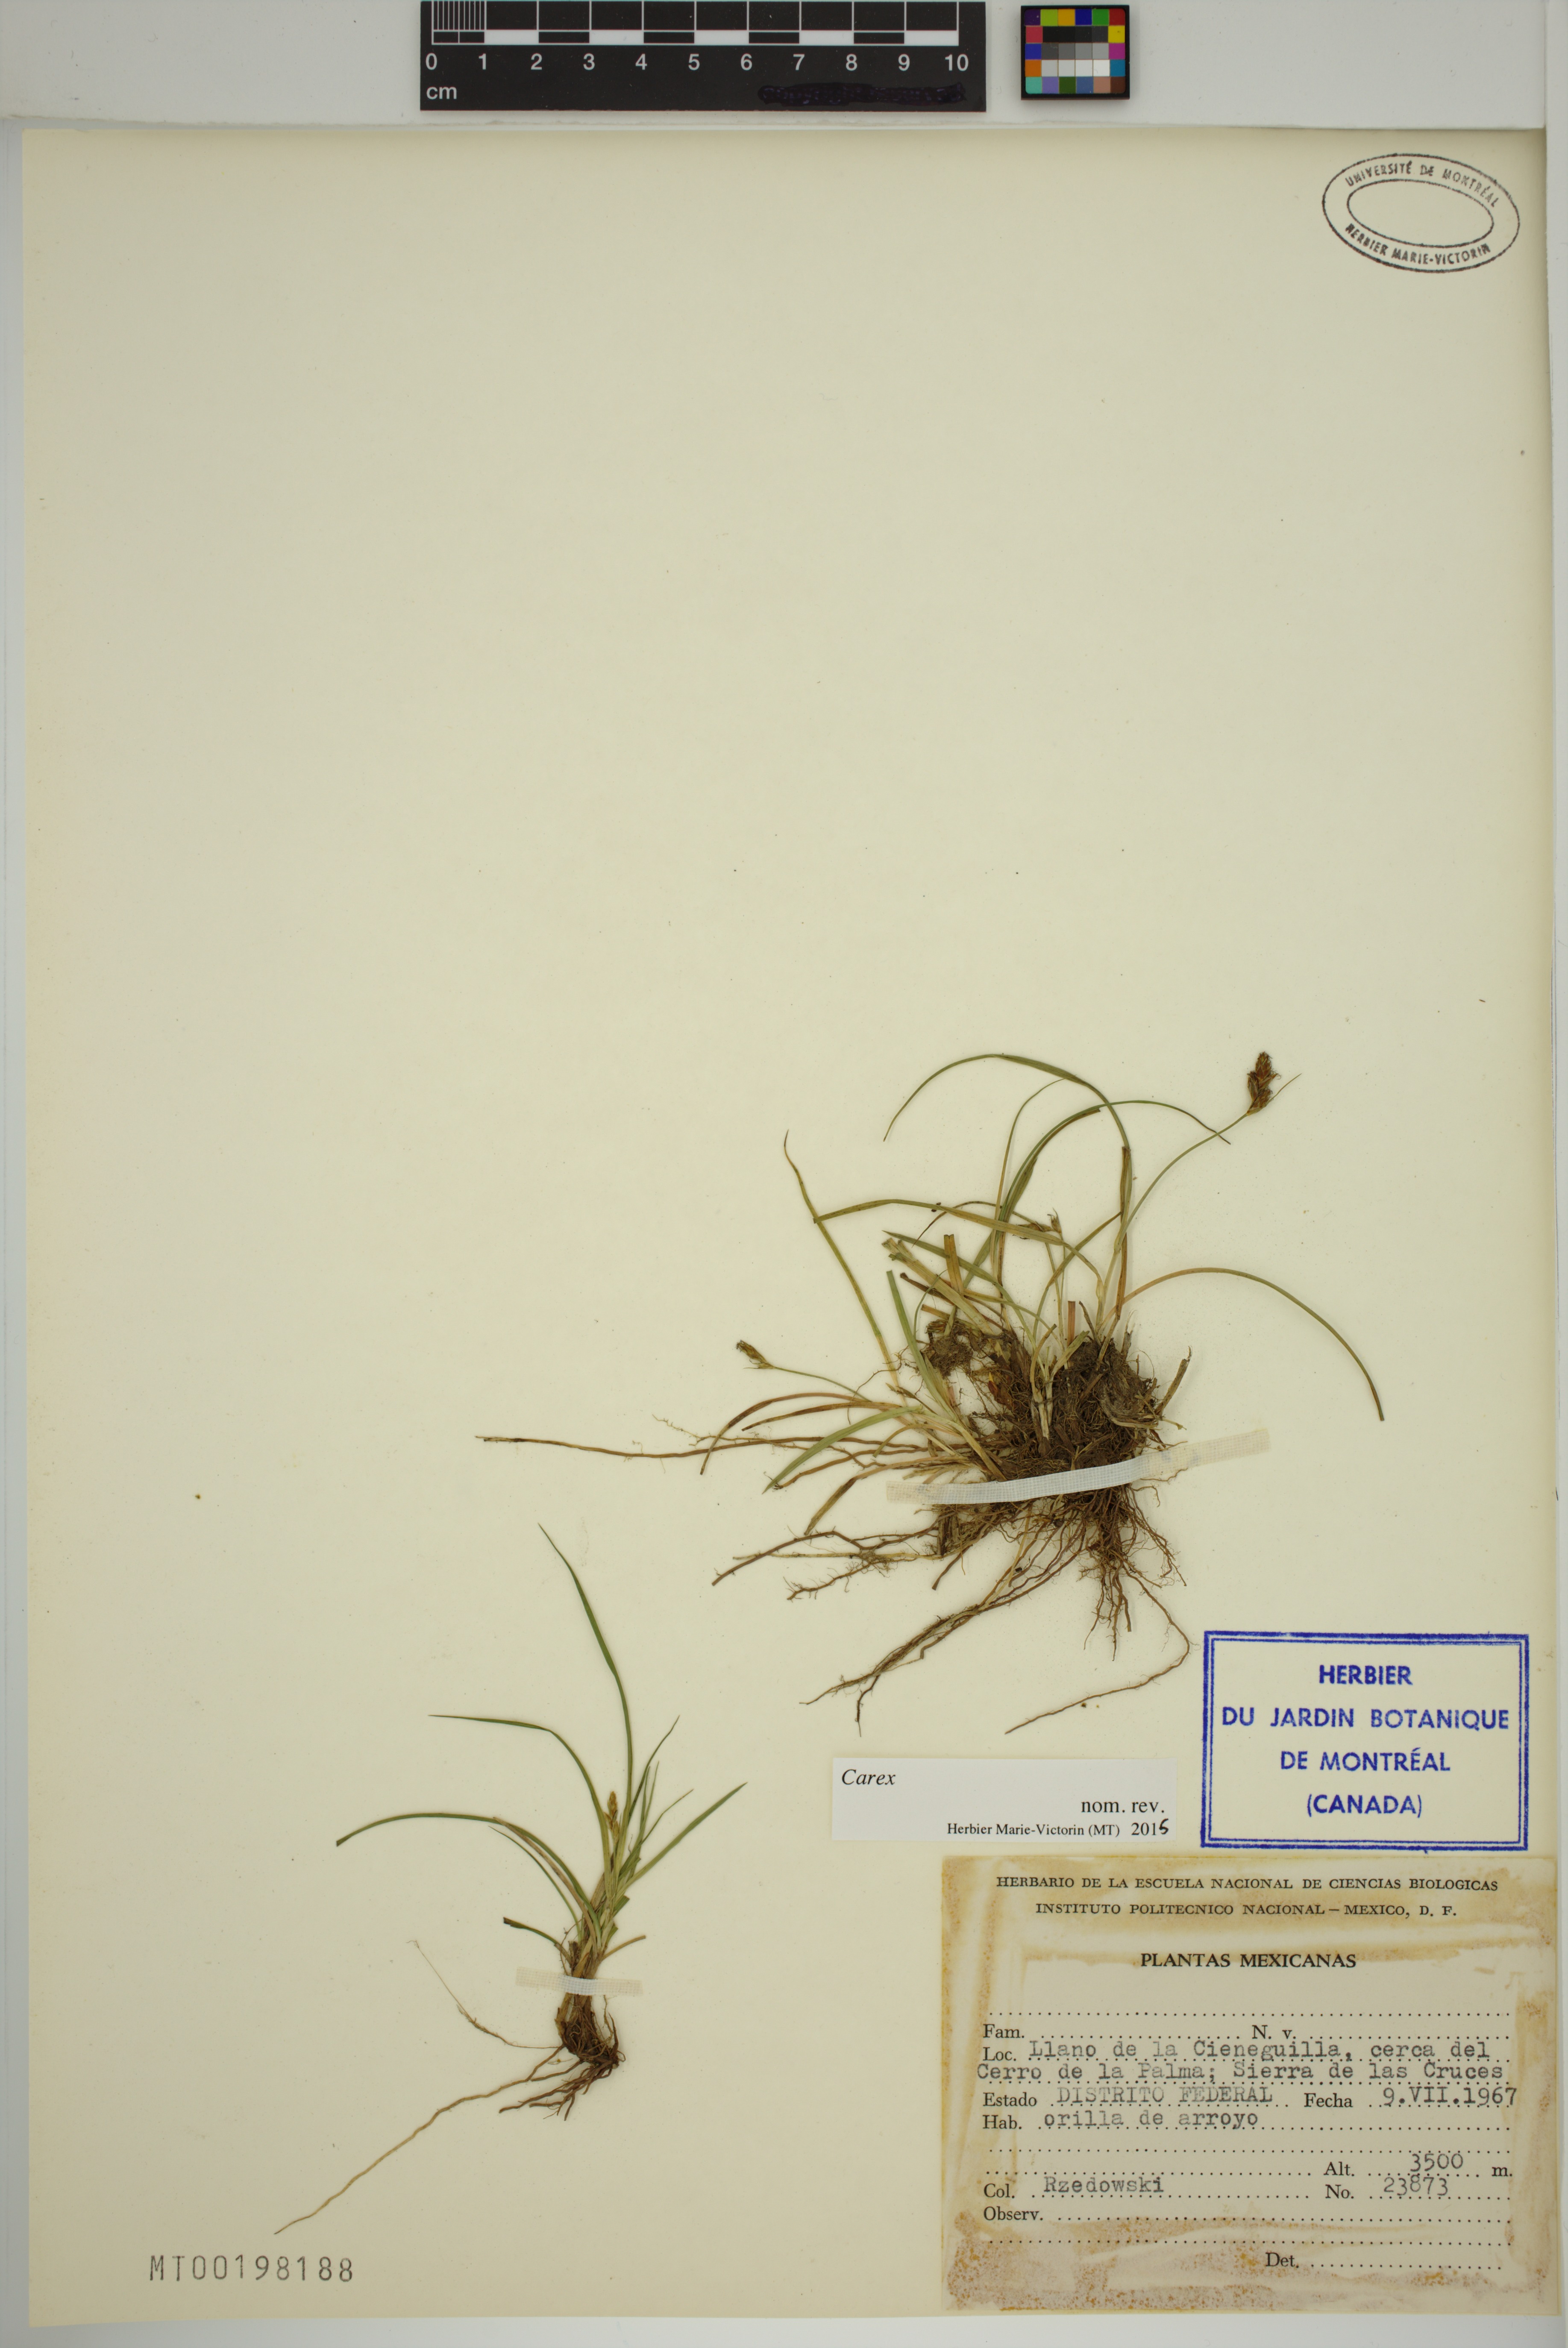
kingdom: Plantae
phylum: Tracheophyta
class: Liliopsida
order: Poales
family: Cyperaceae
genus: Carex
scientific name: Carex
